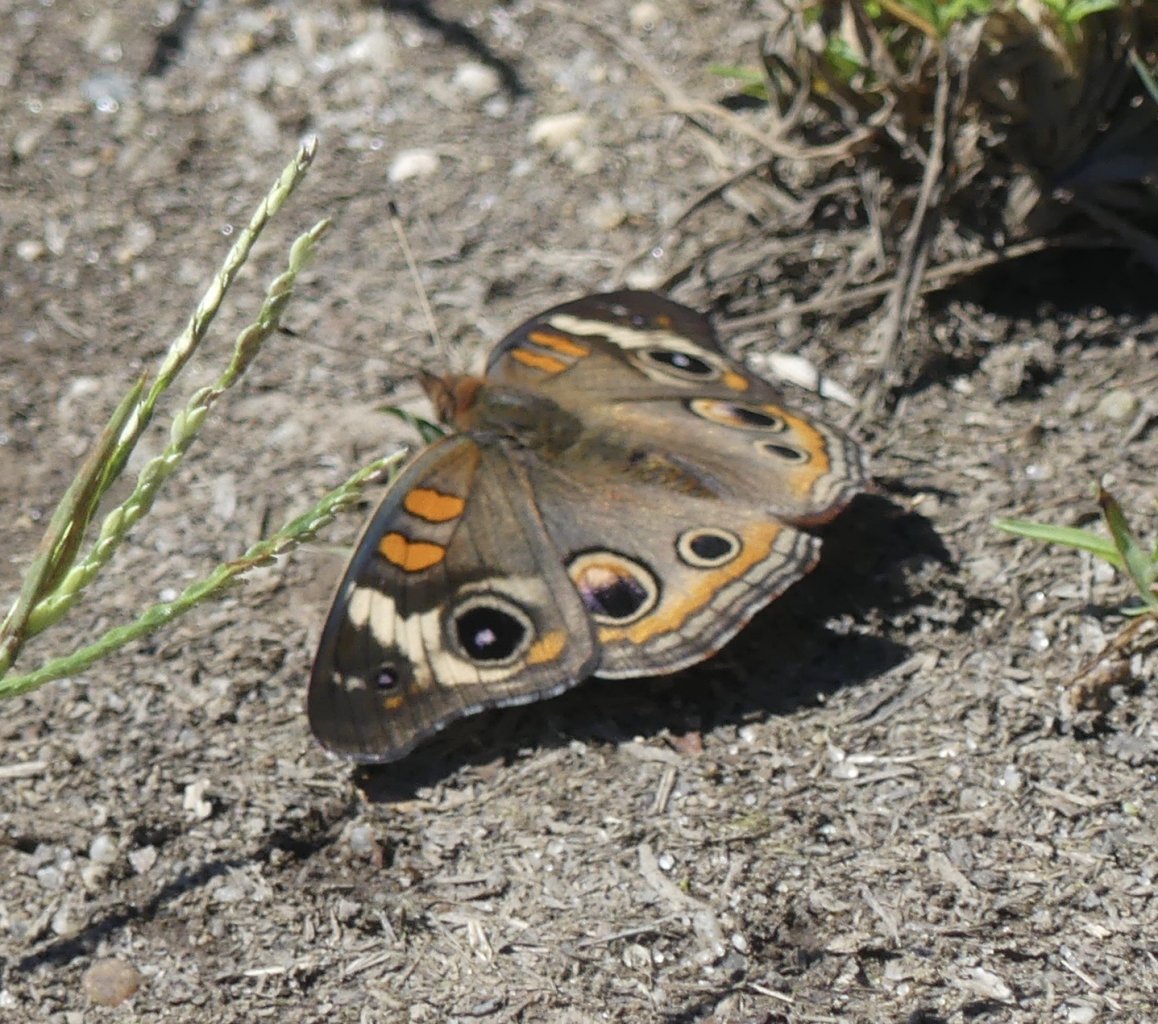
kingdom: Animalia
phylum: Arthropoda
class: Insecta
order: Lepidoptera
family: Nymphalidae
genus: Junonia
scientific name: Junonia coenia
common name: Common Buckeye
